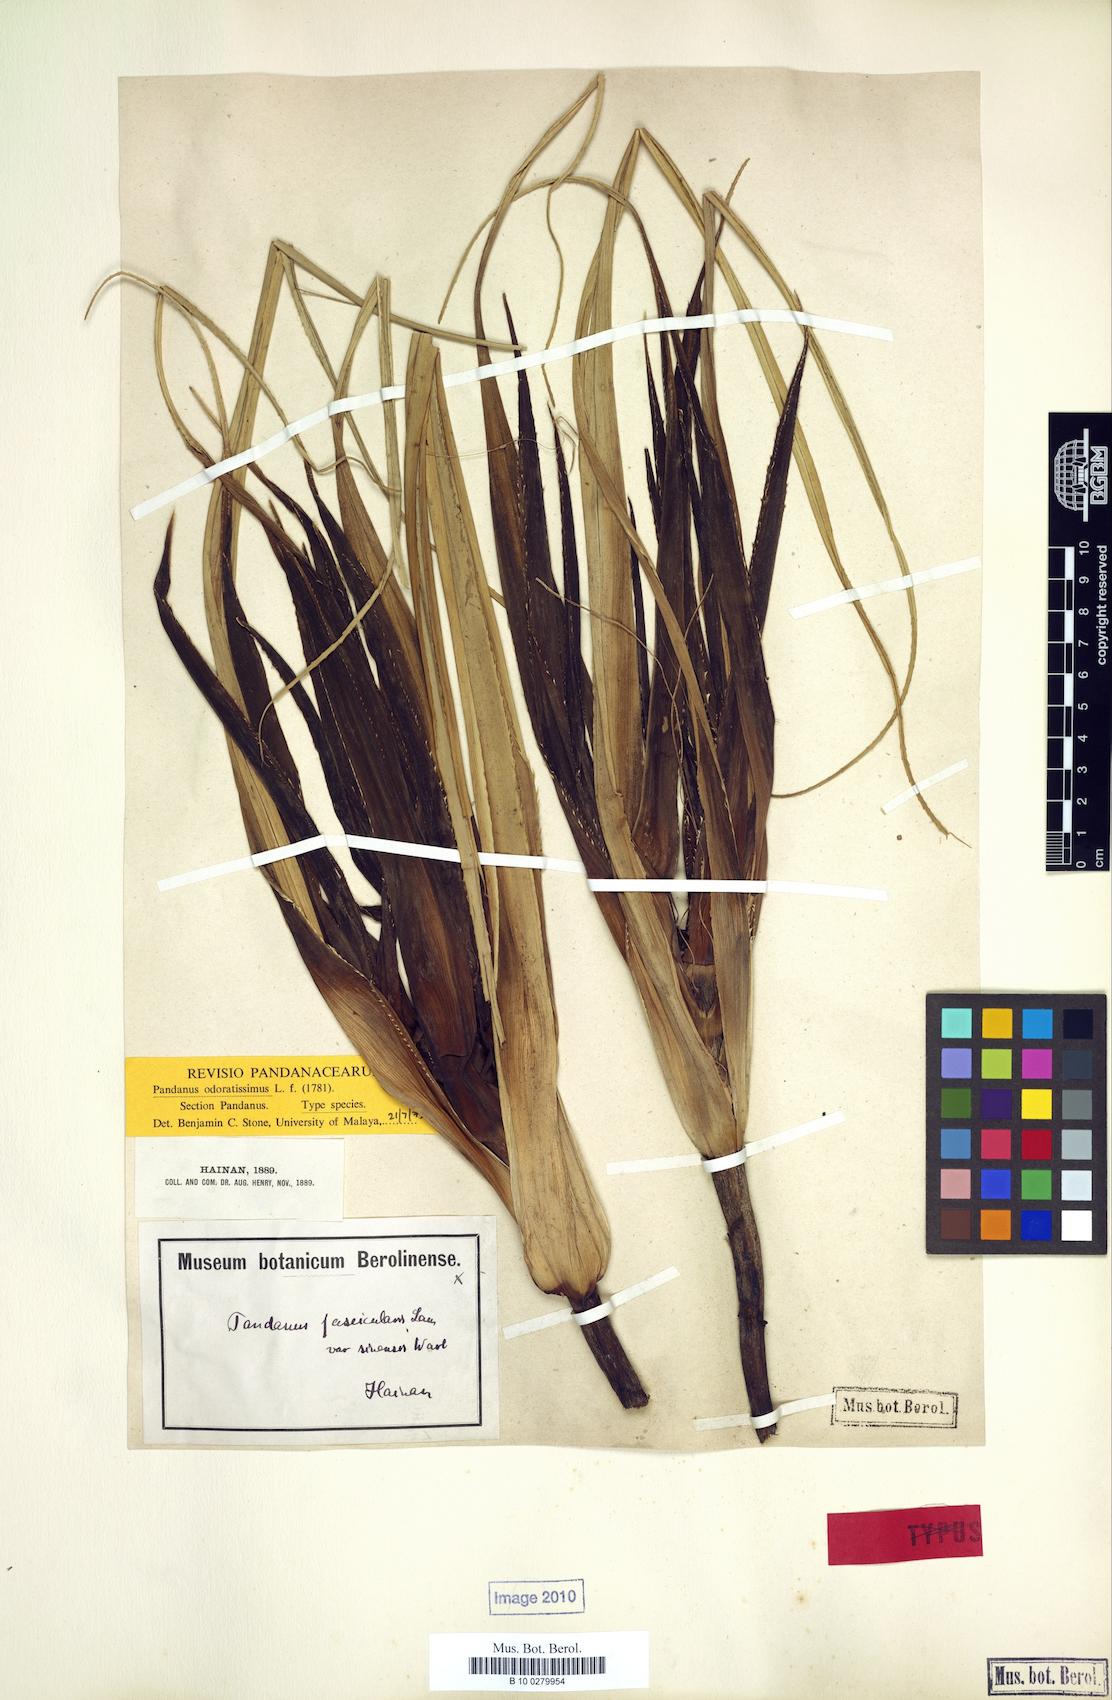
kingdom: Plantae
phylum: Tracheophyta
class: Liliopsida
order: Pandanales
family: Pandanaceae
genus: Pandanus
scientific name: Pandanus odorifer
